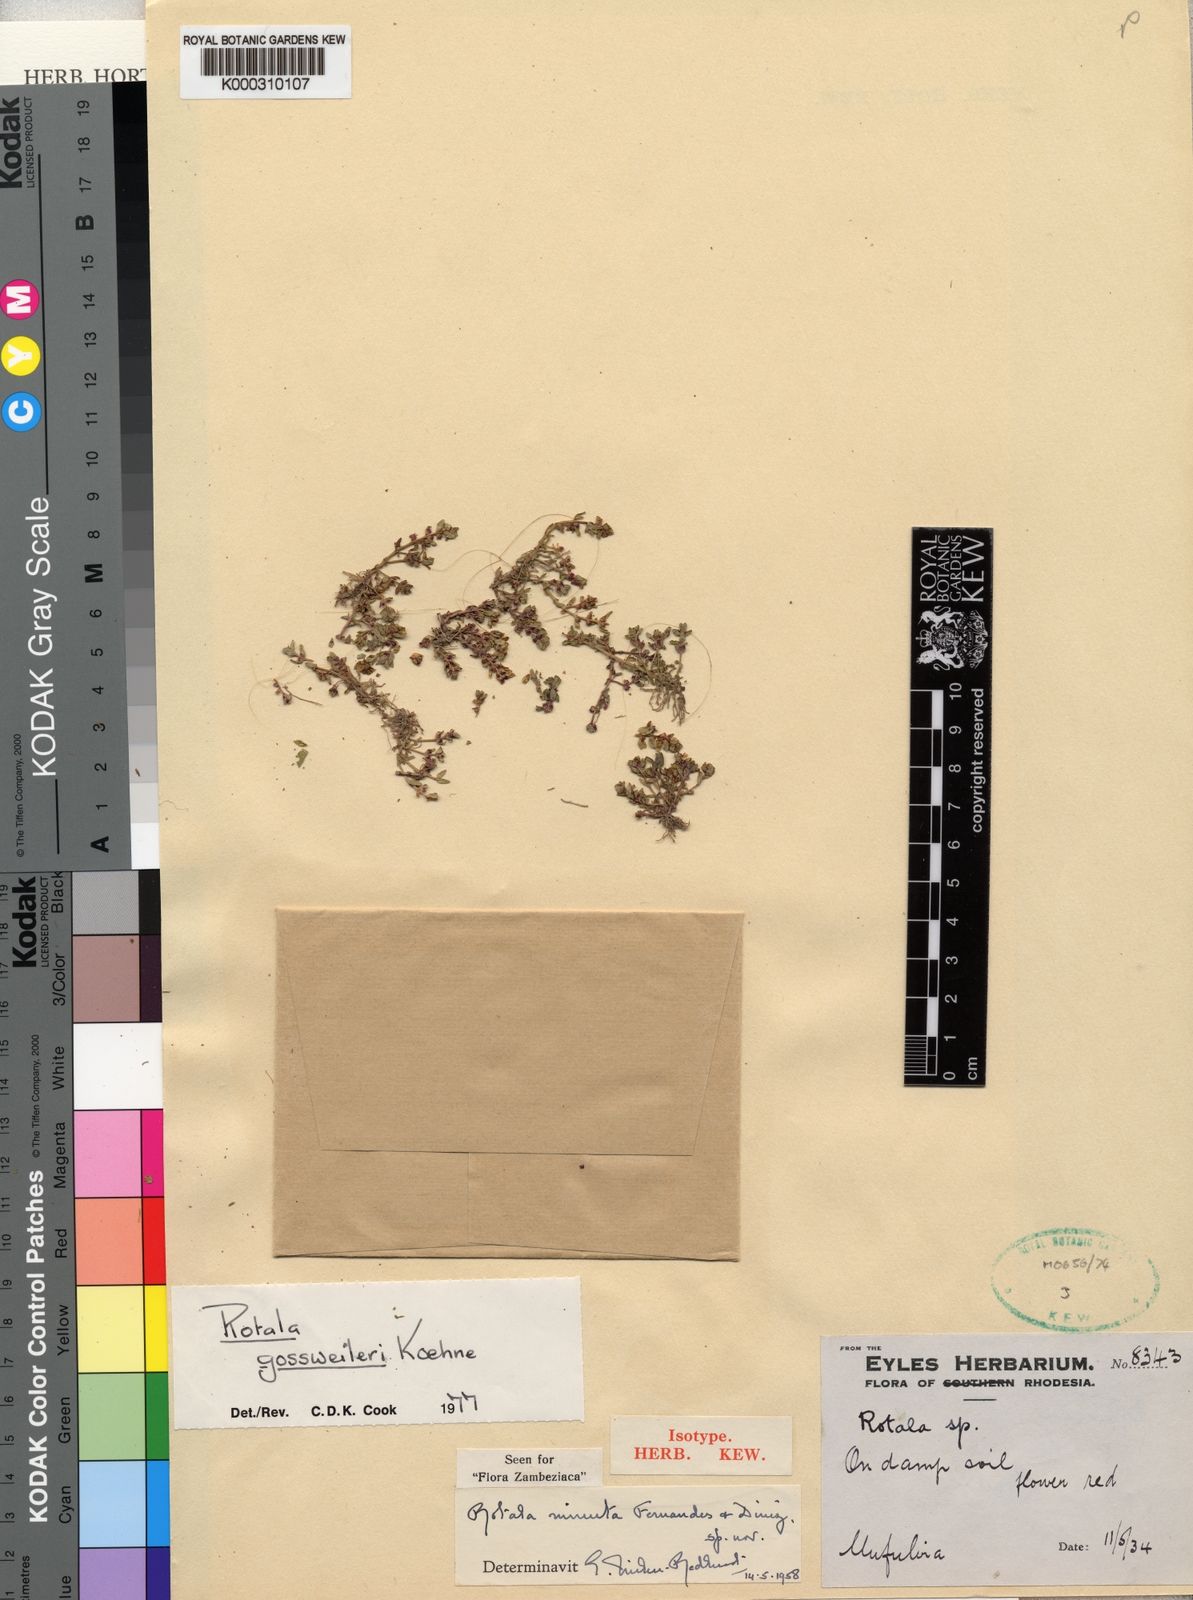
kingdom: Plantae
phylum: Tracheophyta
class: Magnoliopsida
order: Myrtales
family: Lythraceae
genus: Rotala
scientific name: Rotala gossweileri
